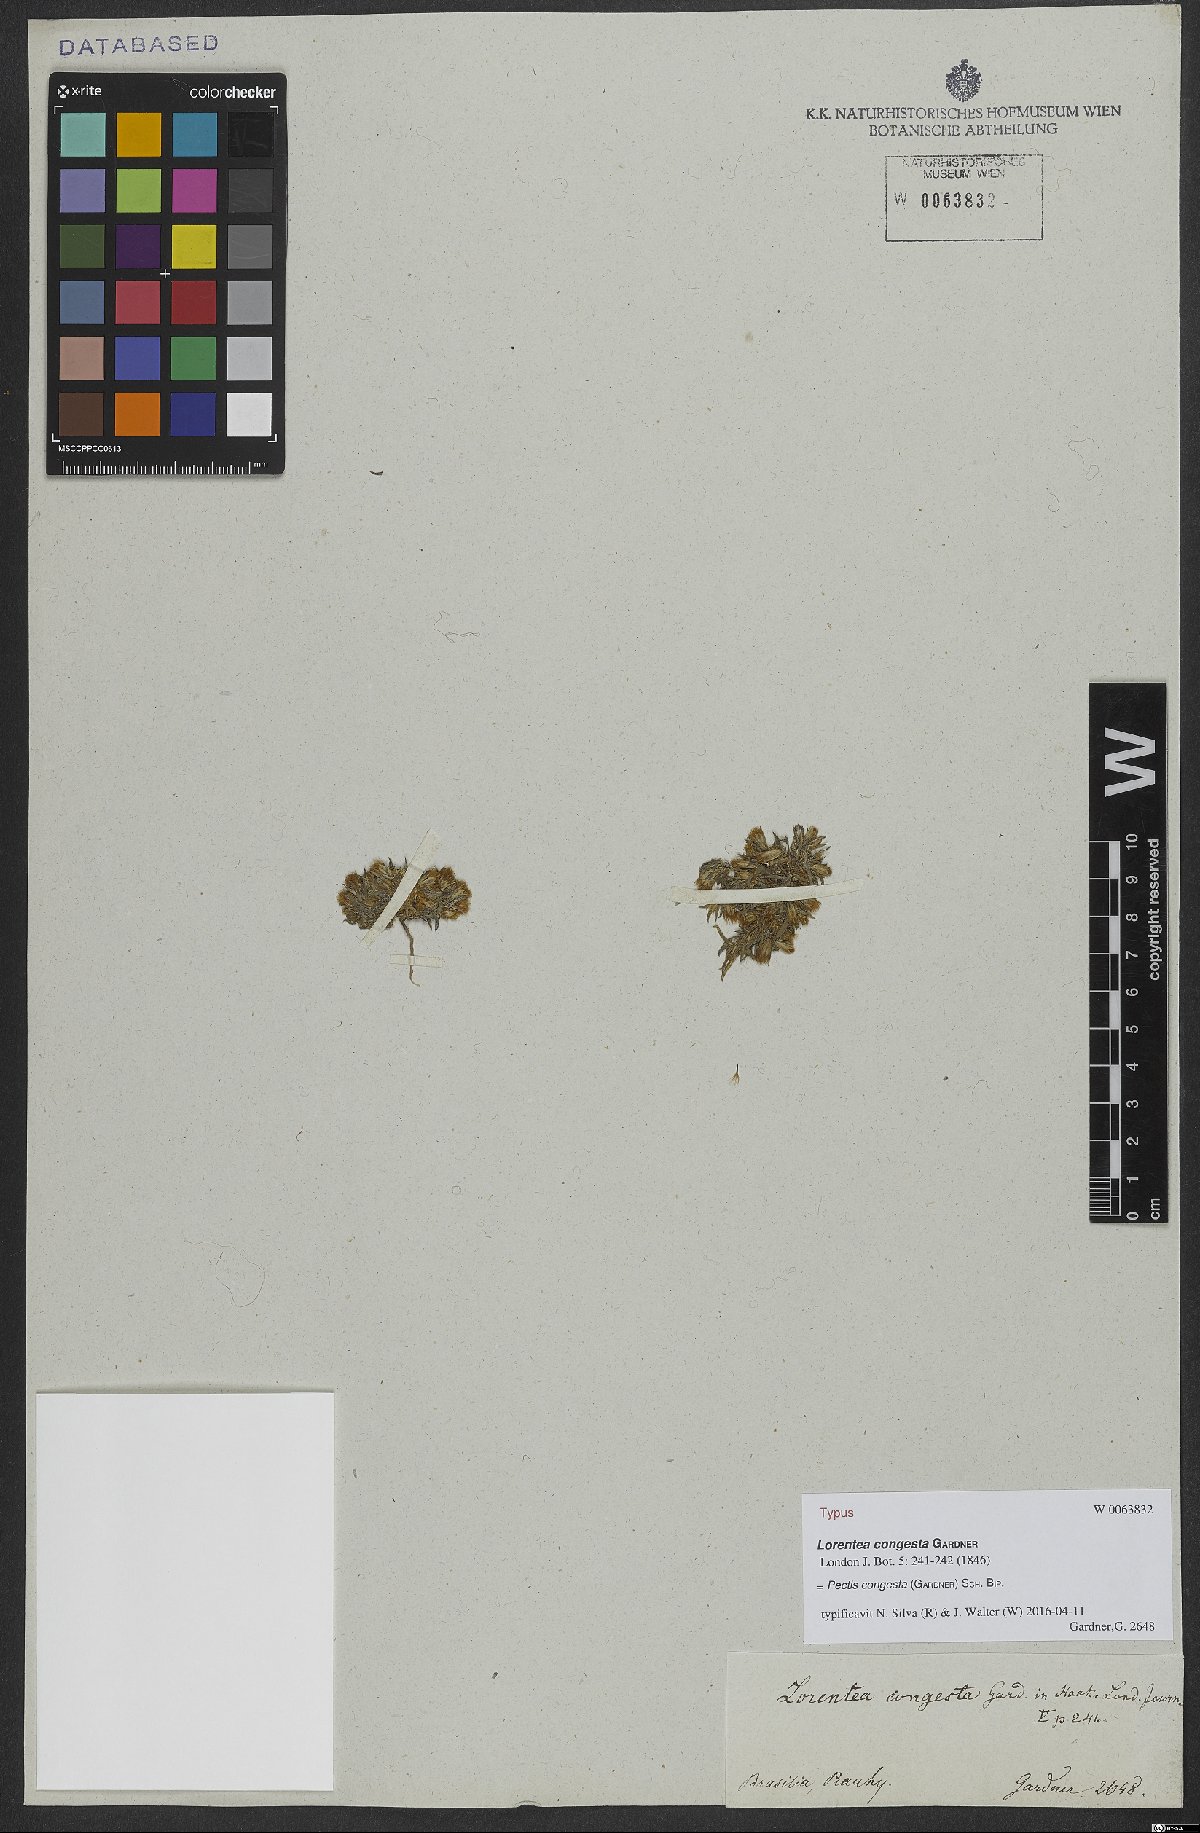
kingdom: Plantae
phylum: Tracheophyta
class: Magnoliopsida
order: Asterales
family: Asteraceae
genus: Pectis
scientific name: Pectis congesta
